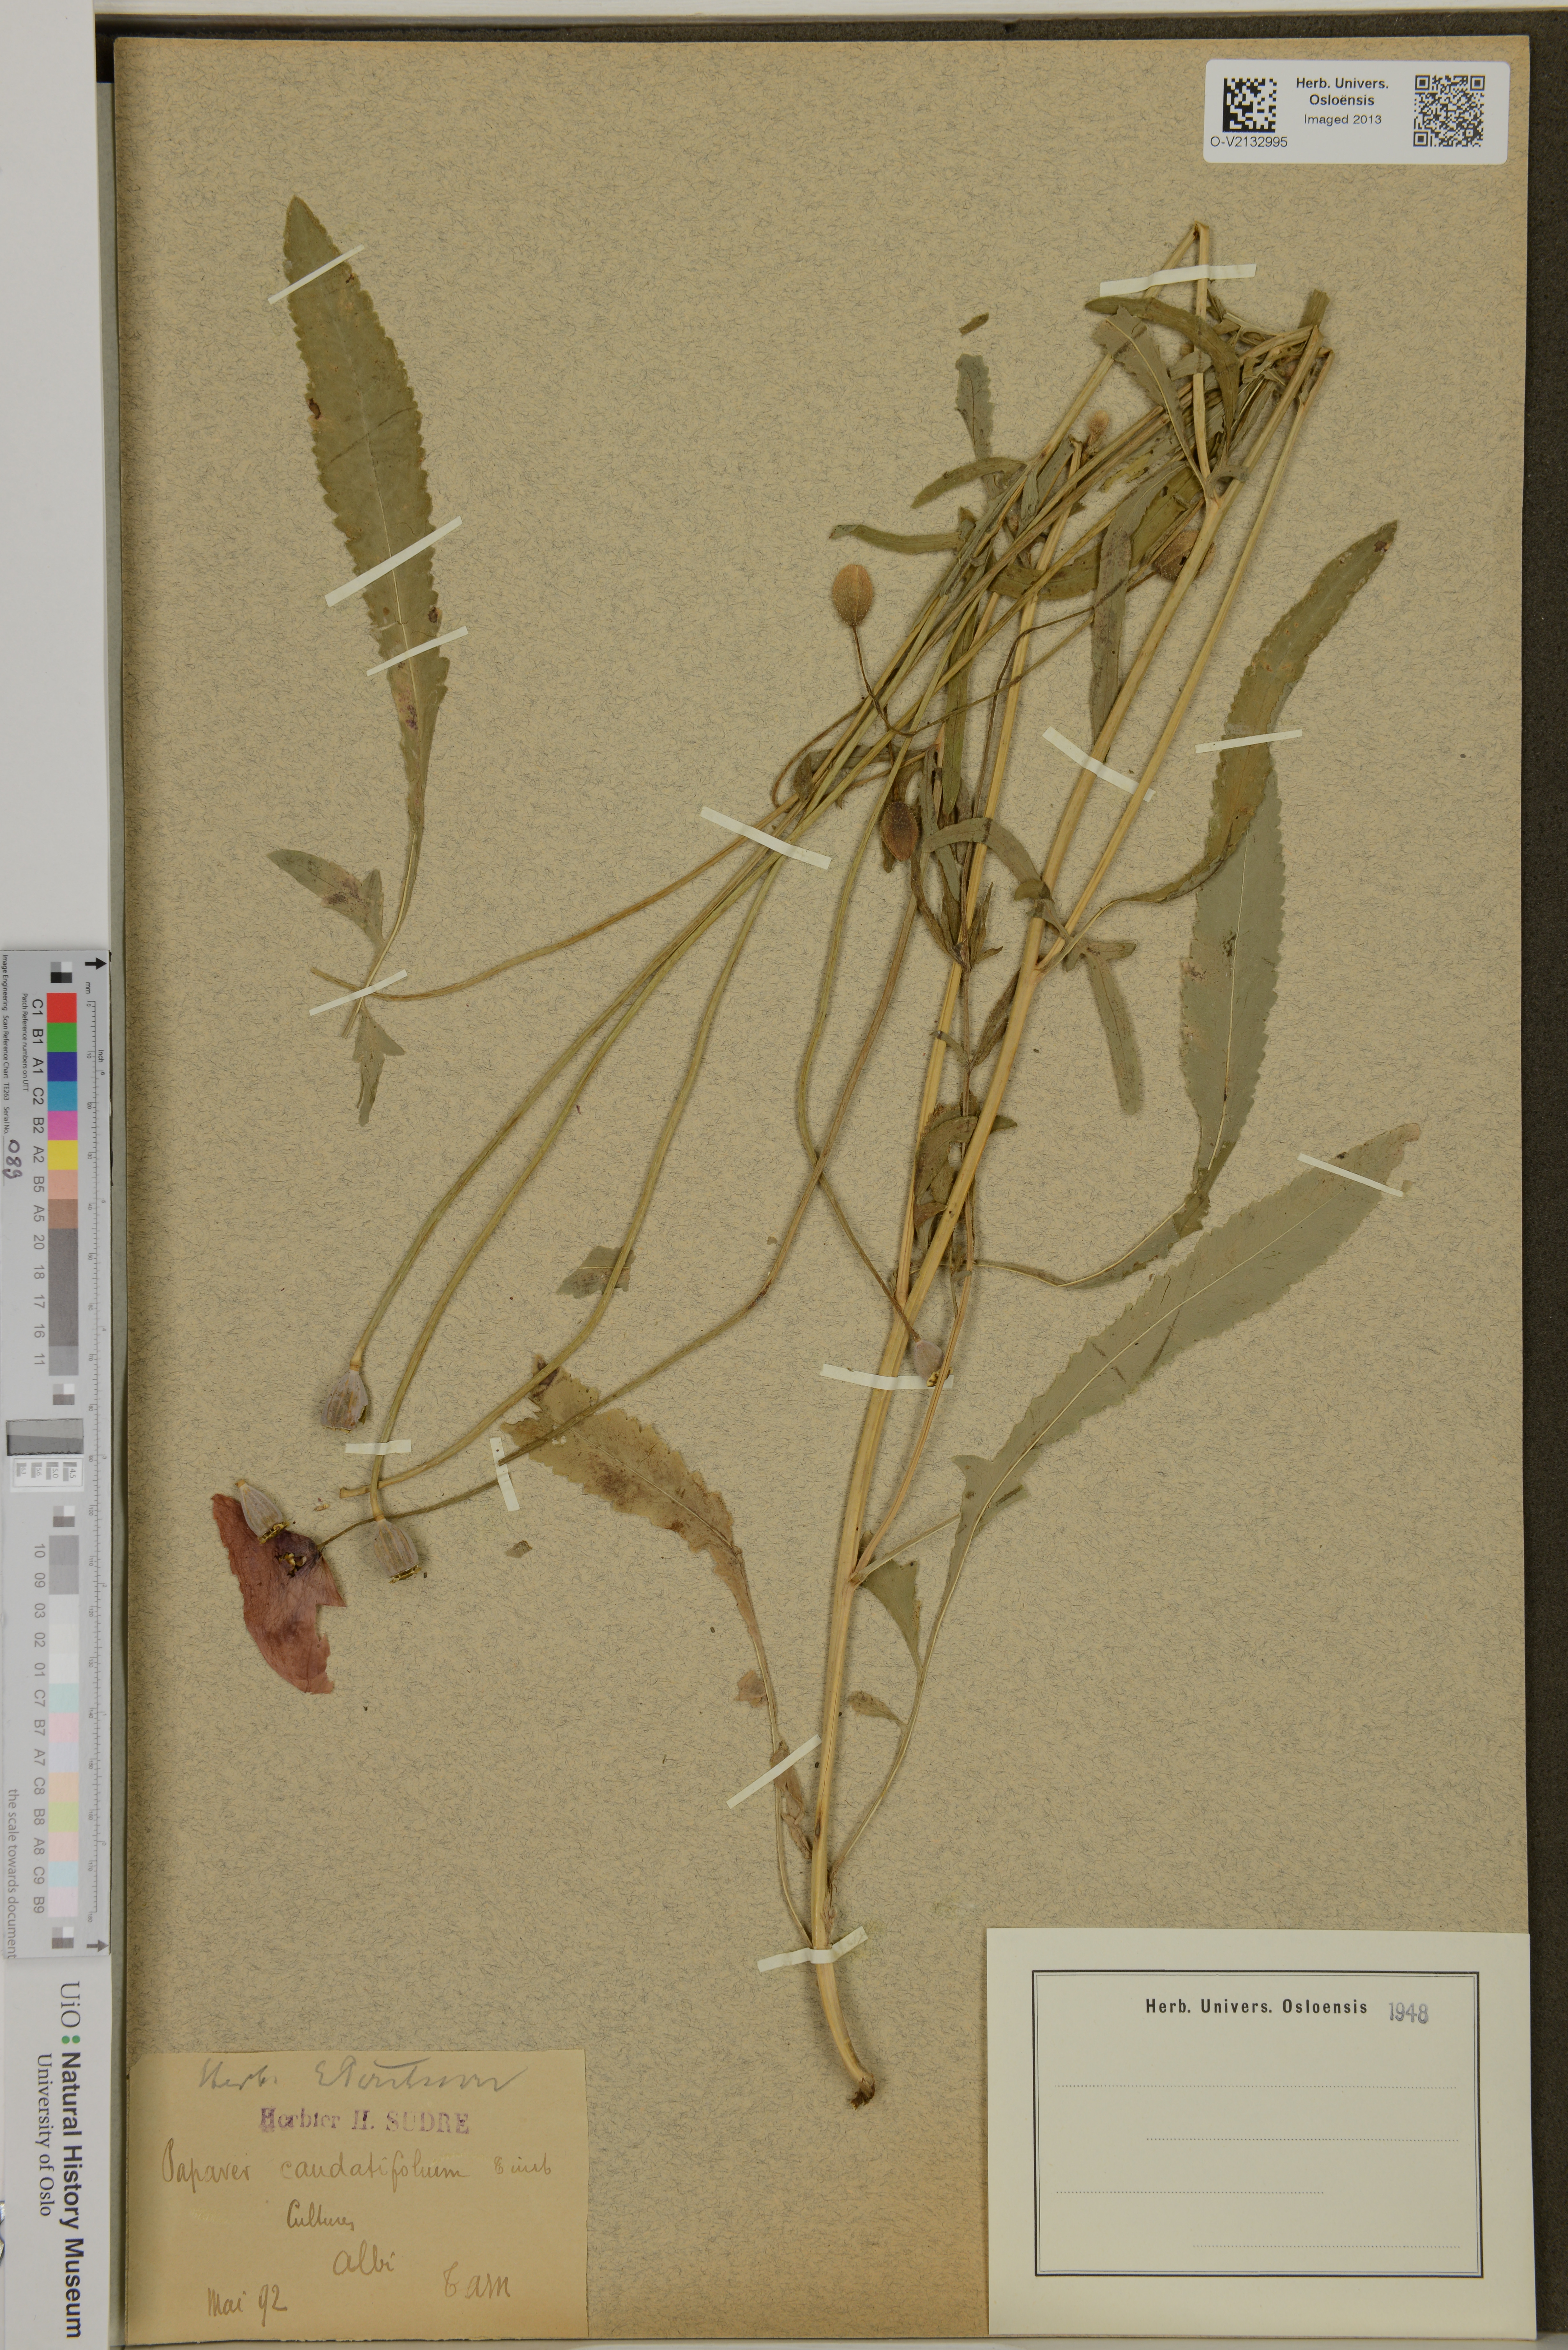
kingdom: Plantae
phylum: Tracheophyta
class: Magnoliopsida
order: Ranunculales
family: Papaveraceae
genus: Papaver
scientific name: Papaver rhoeas
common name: Corn poppy
